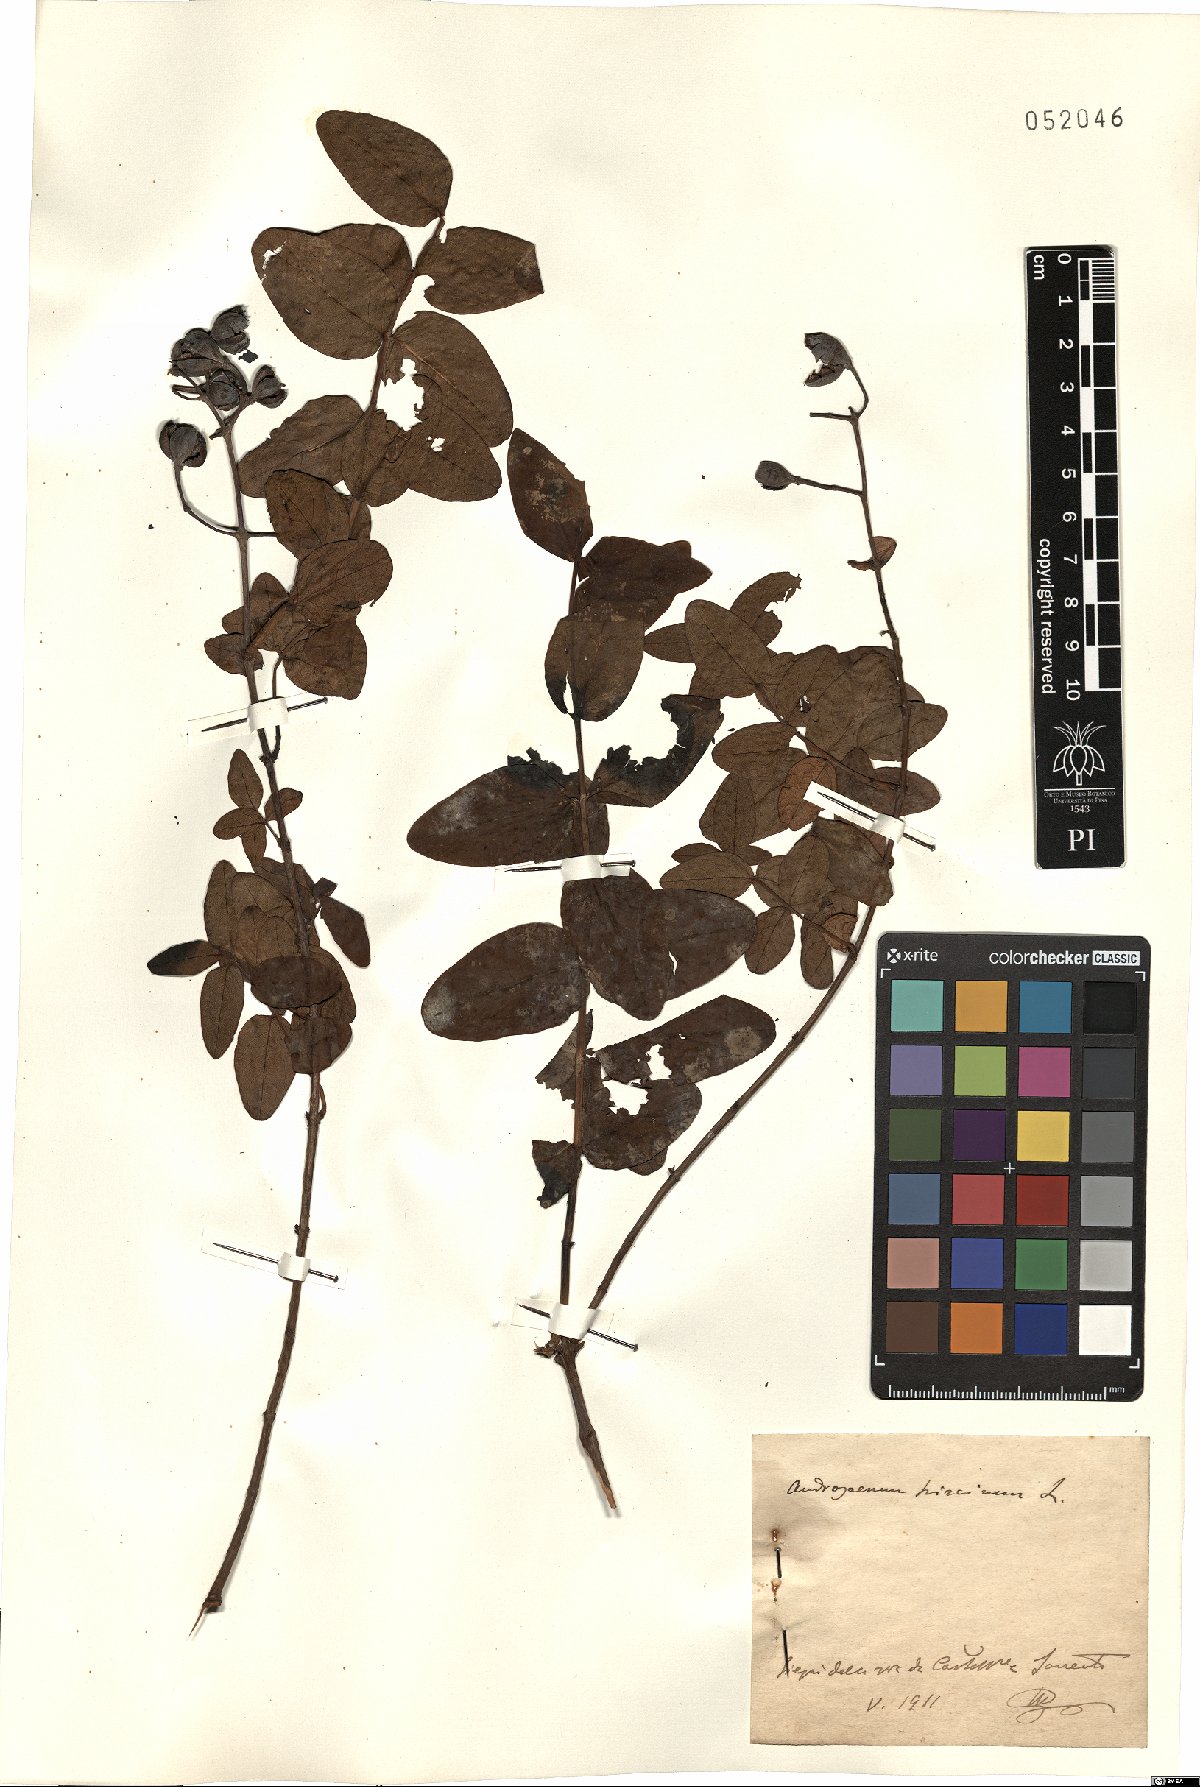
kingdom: Plantae
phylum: Tracheophyta
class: Magnoliopsida
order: Malpighiales
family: Hypericaceae
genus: Hypericum
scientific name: Hypericum hircinum
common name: Stinking tutsan
